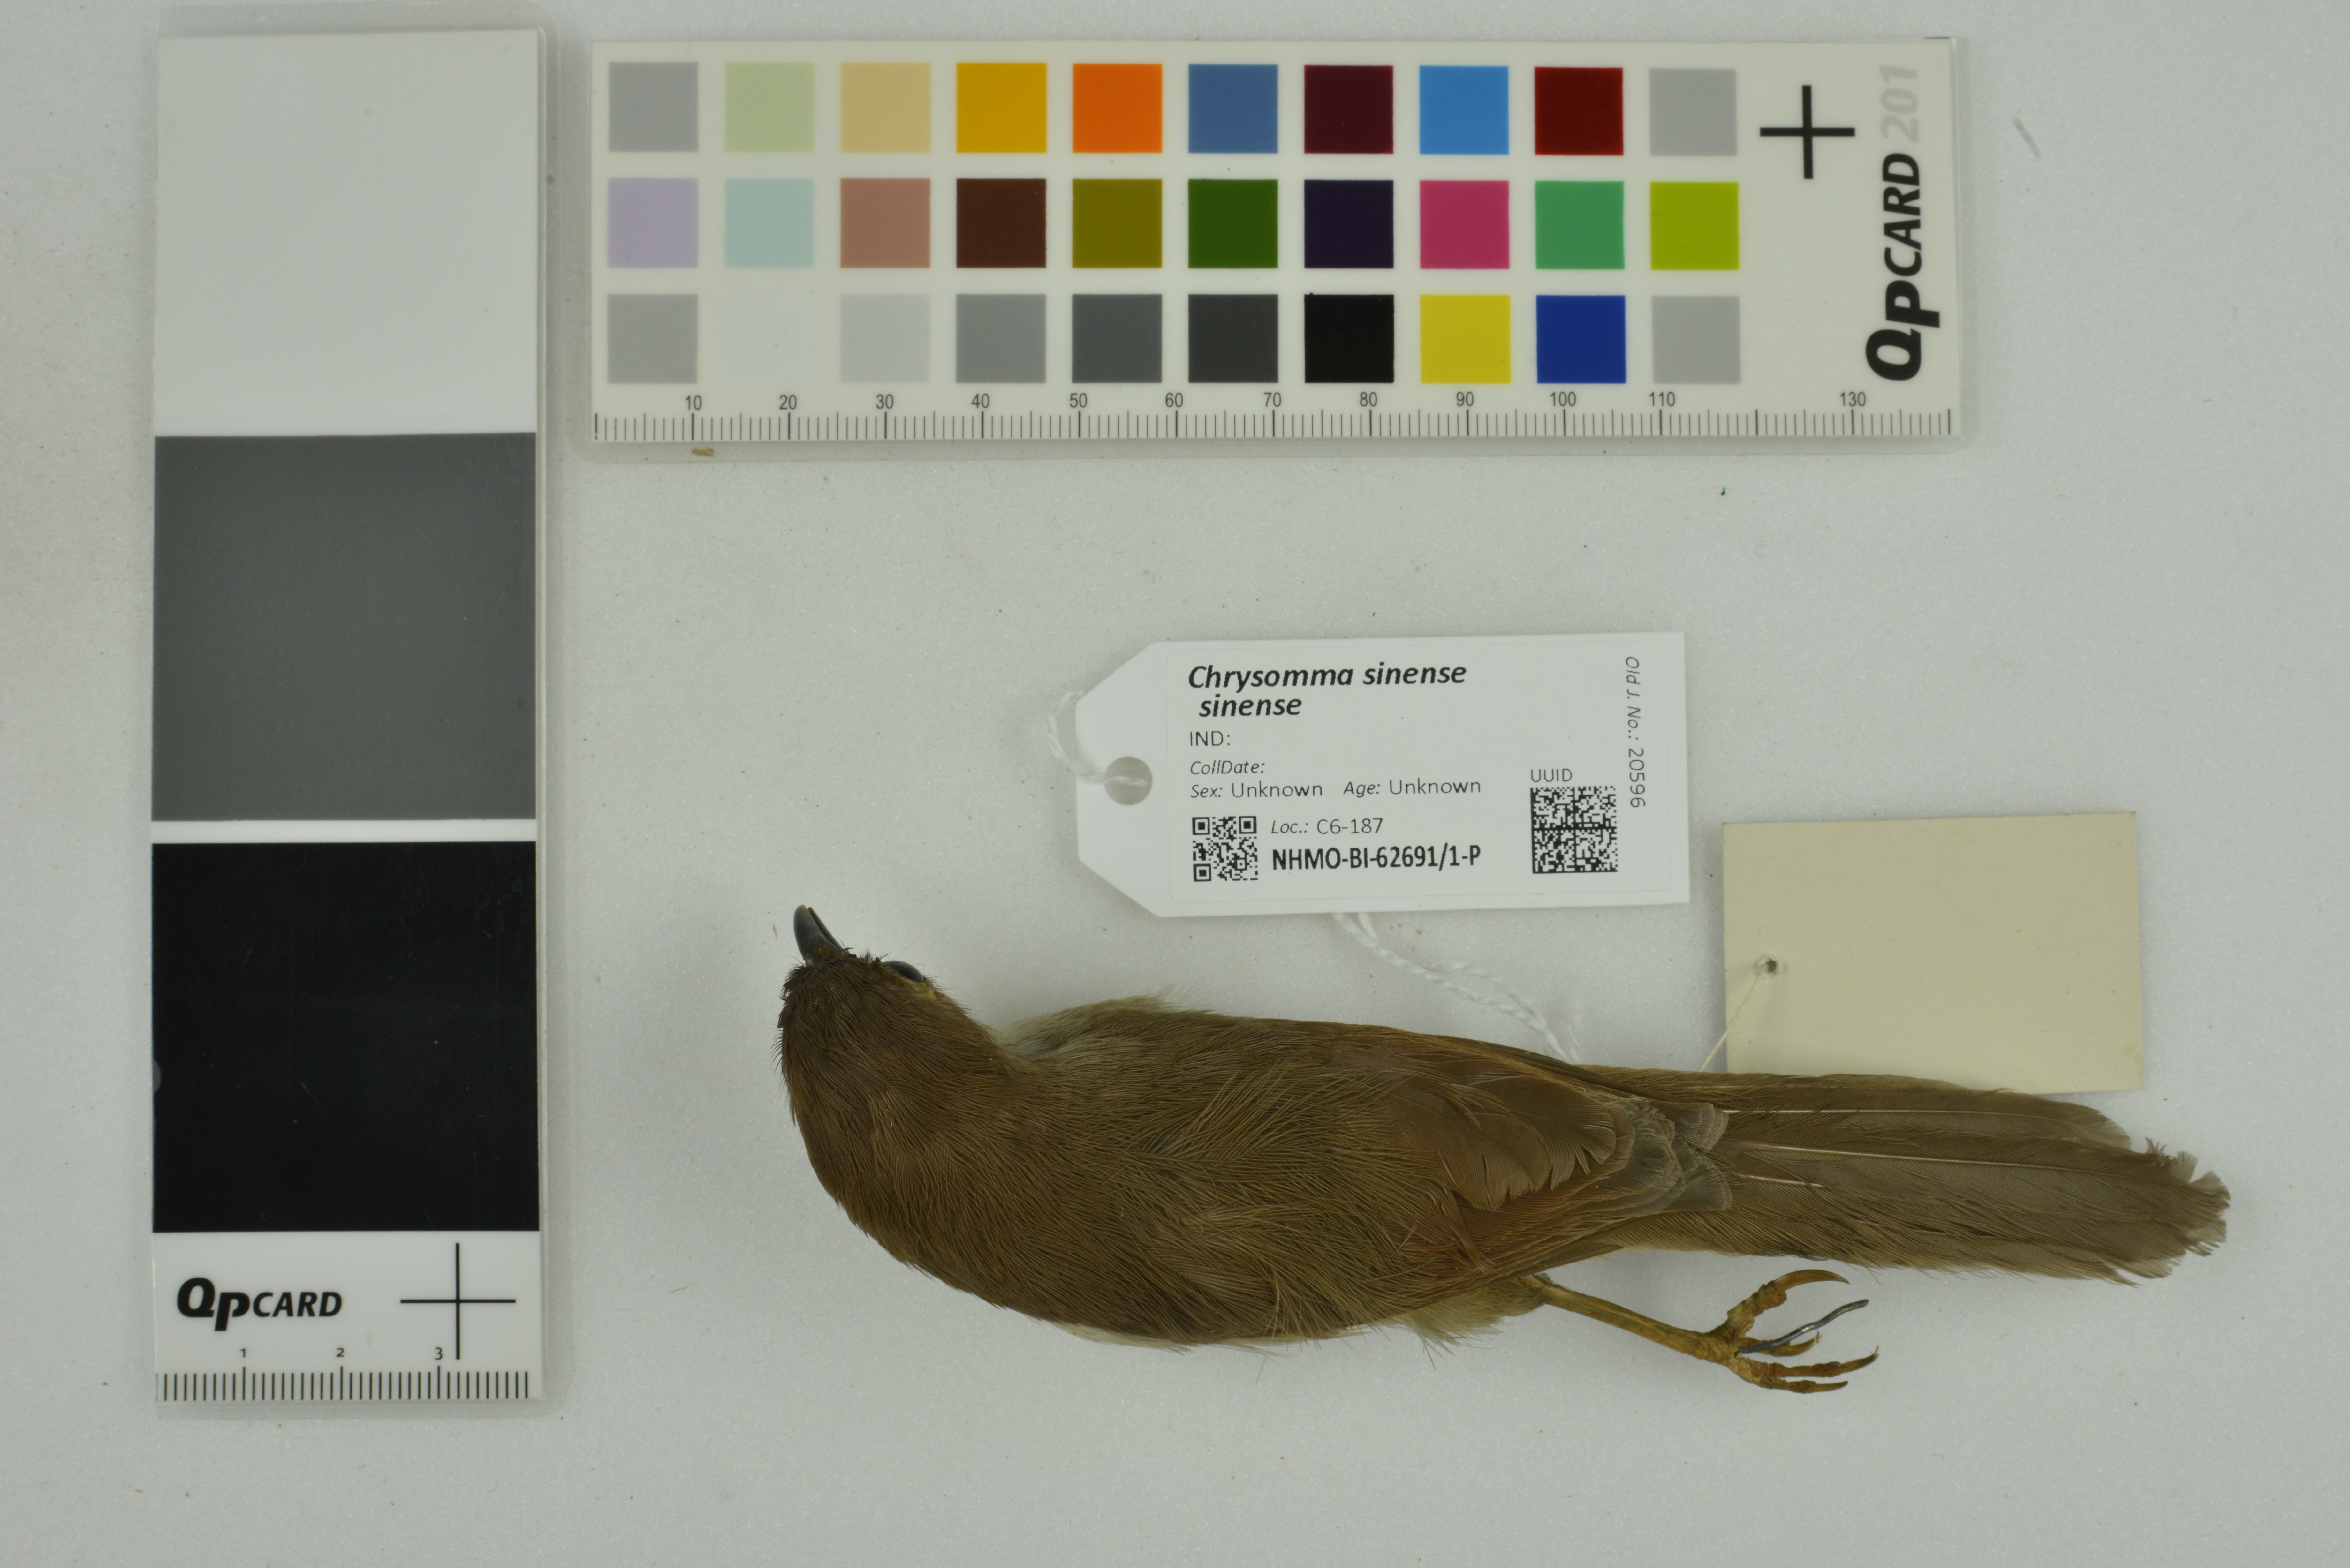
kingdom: Animalia
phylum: Chordata
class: Aves
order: Passeriformes
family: Sylviidae
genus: Chrysomma
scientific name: Chrysomma sinense
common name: Yellow-eyed babbler
